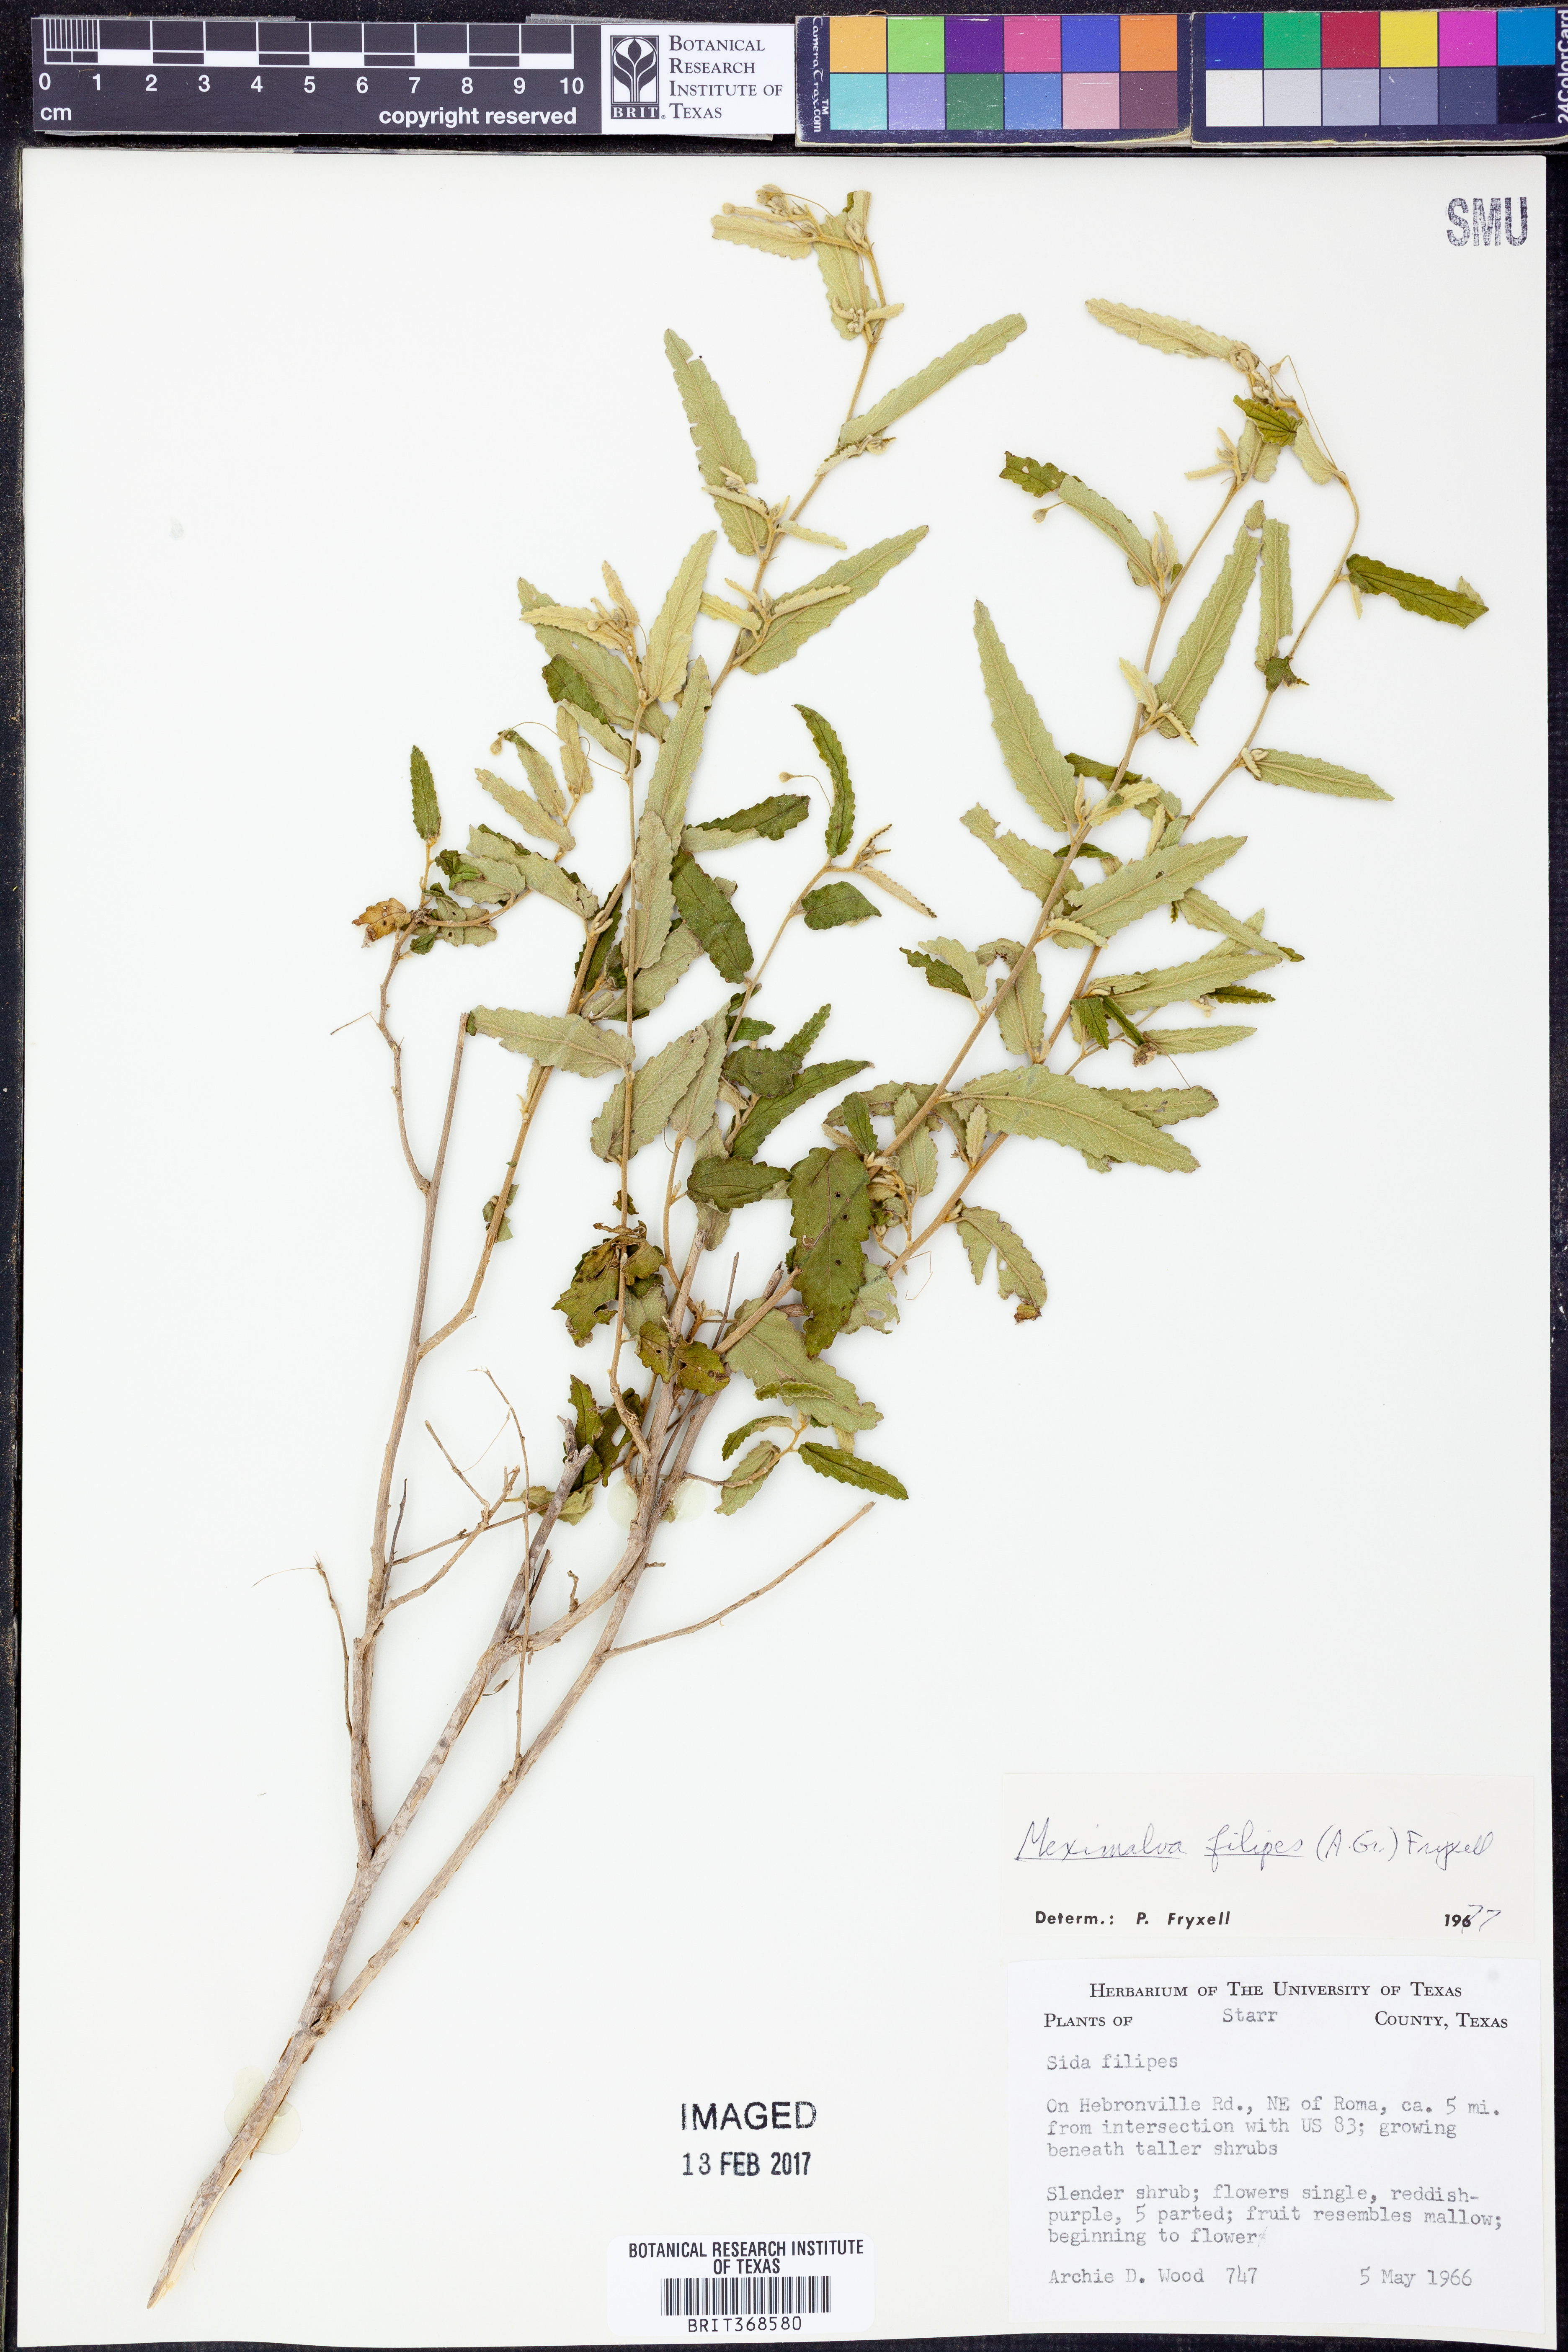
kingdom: Plantae
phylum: Tracheophyta
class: Magnoliopsida
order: Malvales
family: Malvaceae
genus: Meximalva
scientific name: Meximalva filipes
